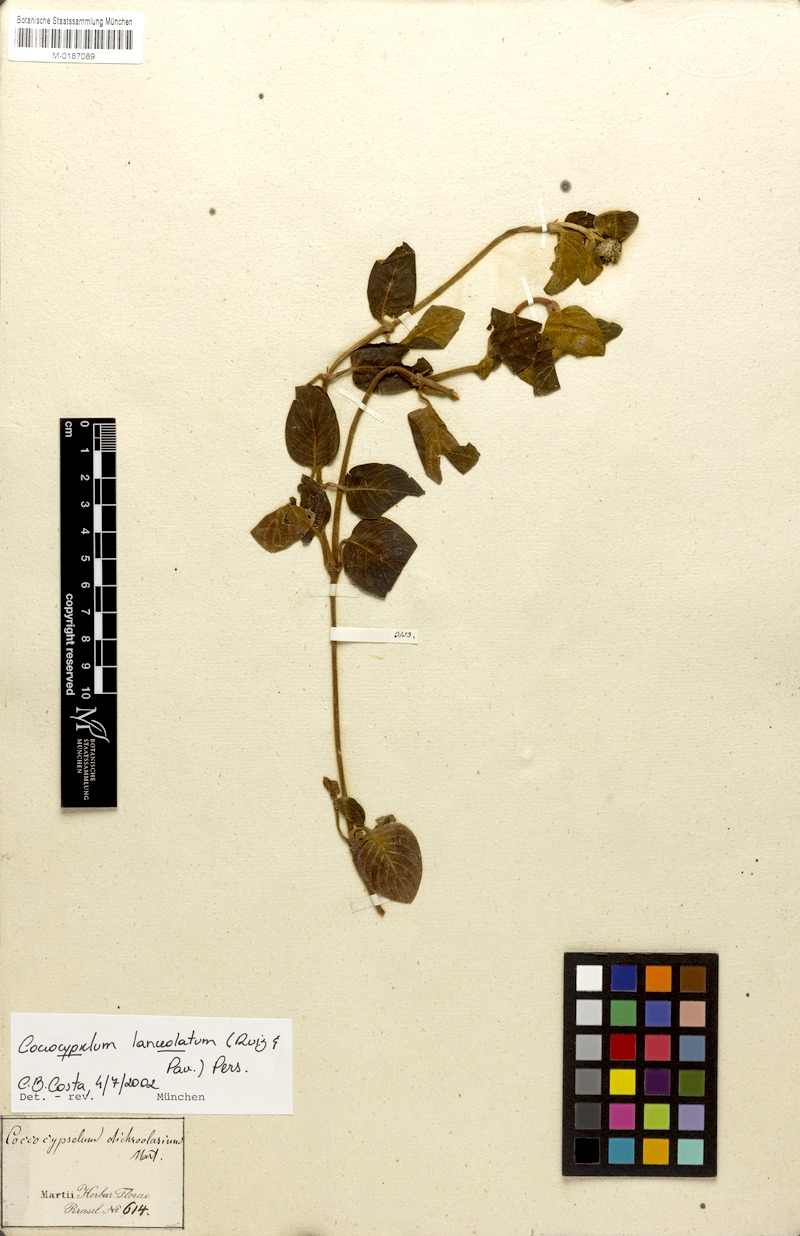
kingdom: Plantae
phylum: Tracheophyta
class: Magnoliopsida
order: Gentianales
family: Rubiaceae
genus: Coccocypselum
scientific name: Coccocypselum lanceolatum
